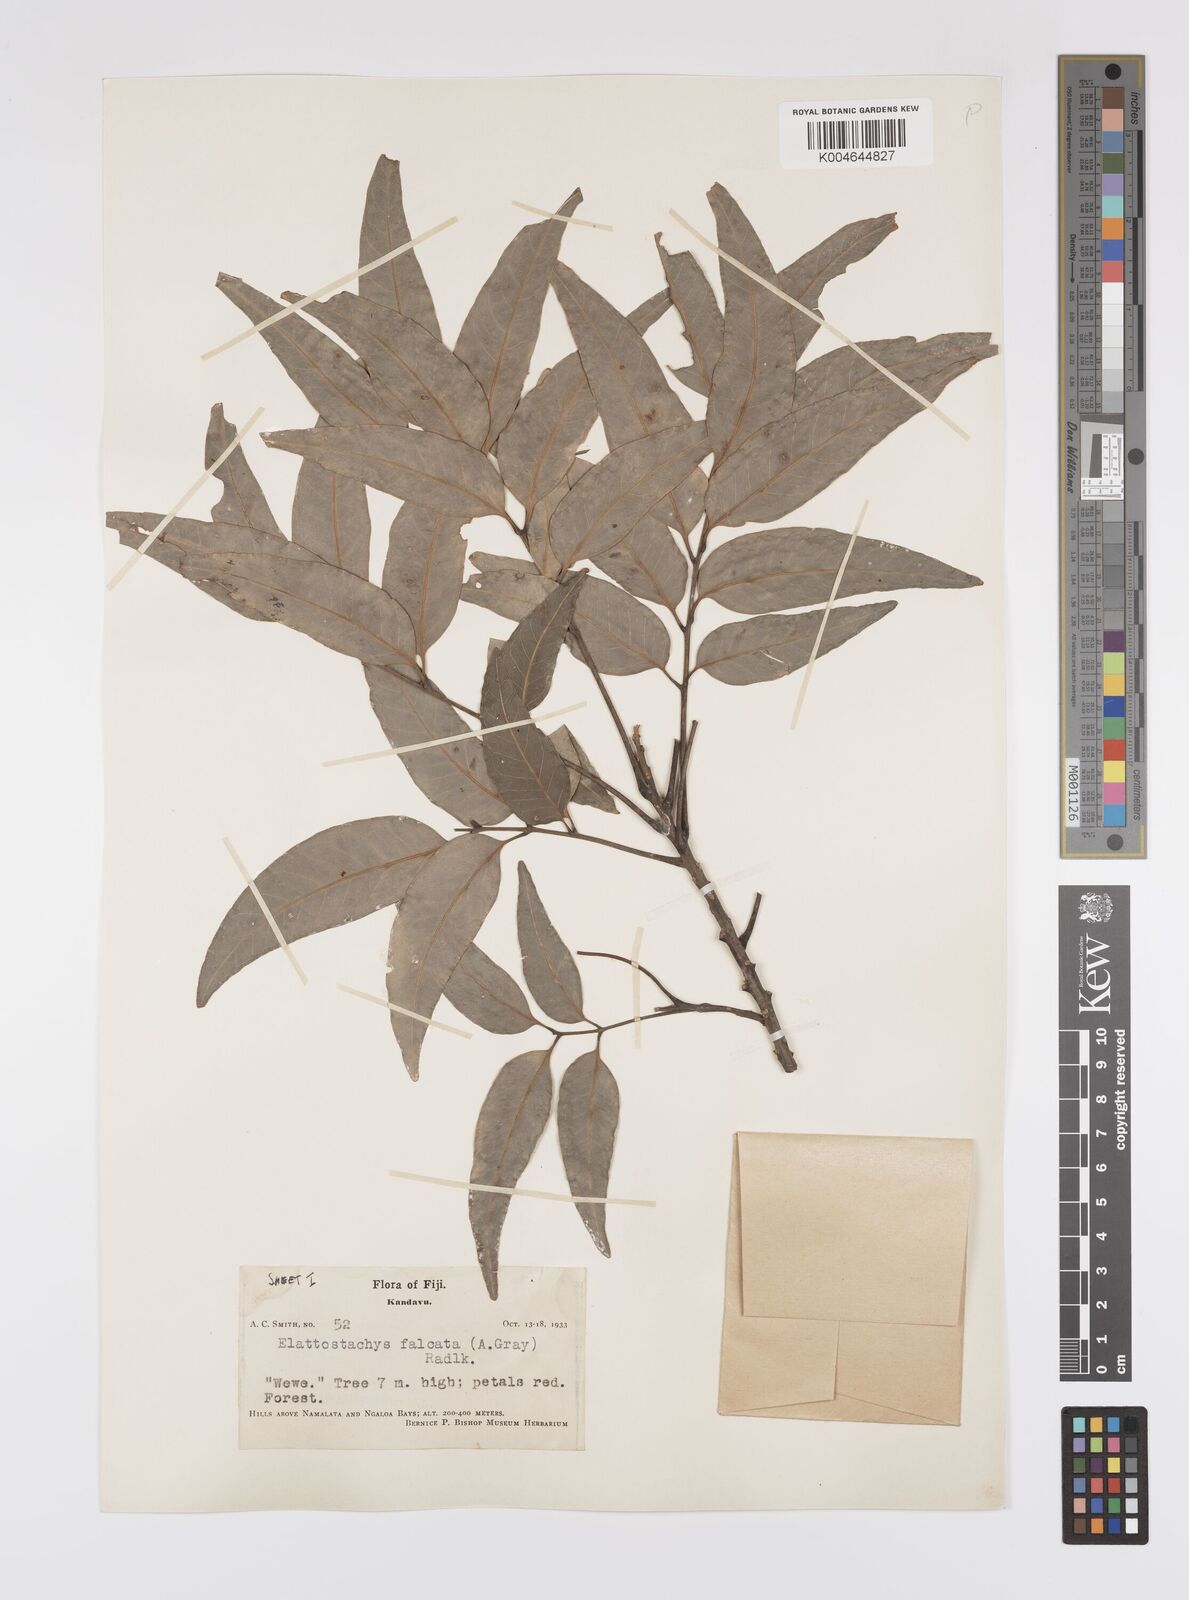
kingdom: Plantae
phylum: Tracheophyta
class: Magnoliopsida
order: Sapindales
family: Sapindaceae
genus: Elattostachys
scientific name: Elattostachys apetala
